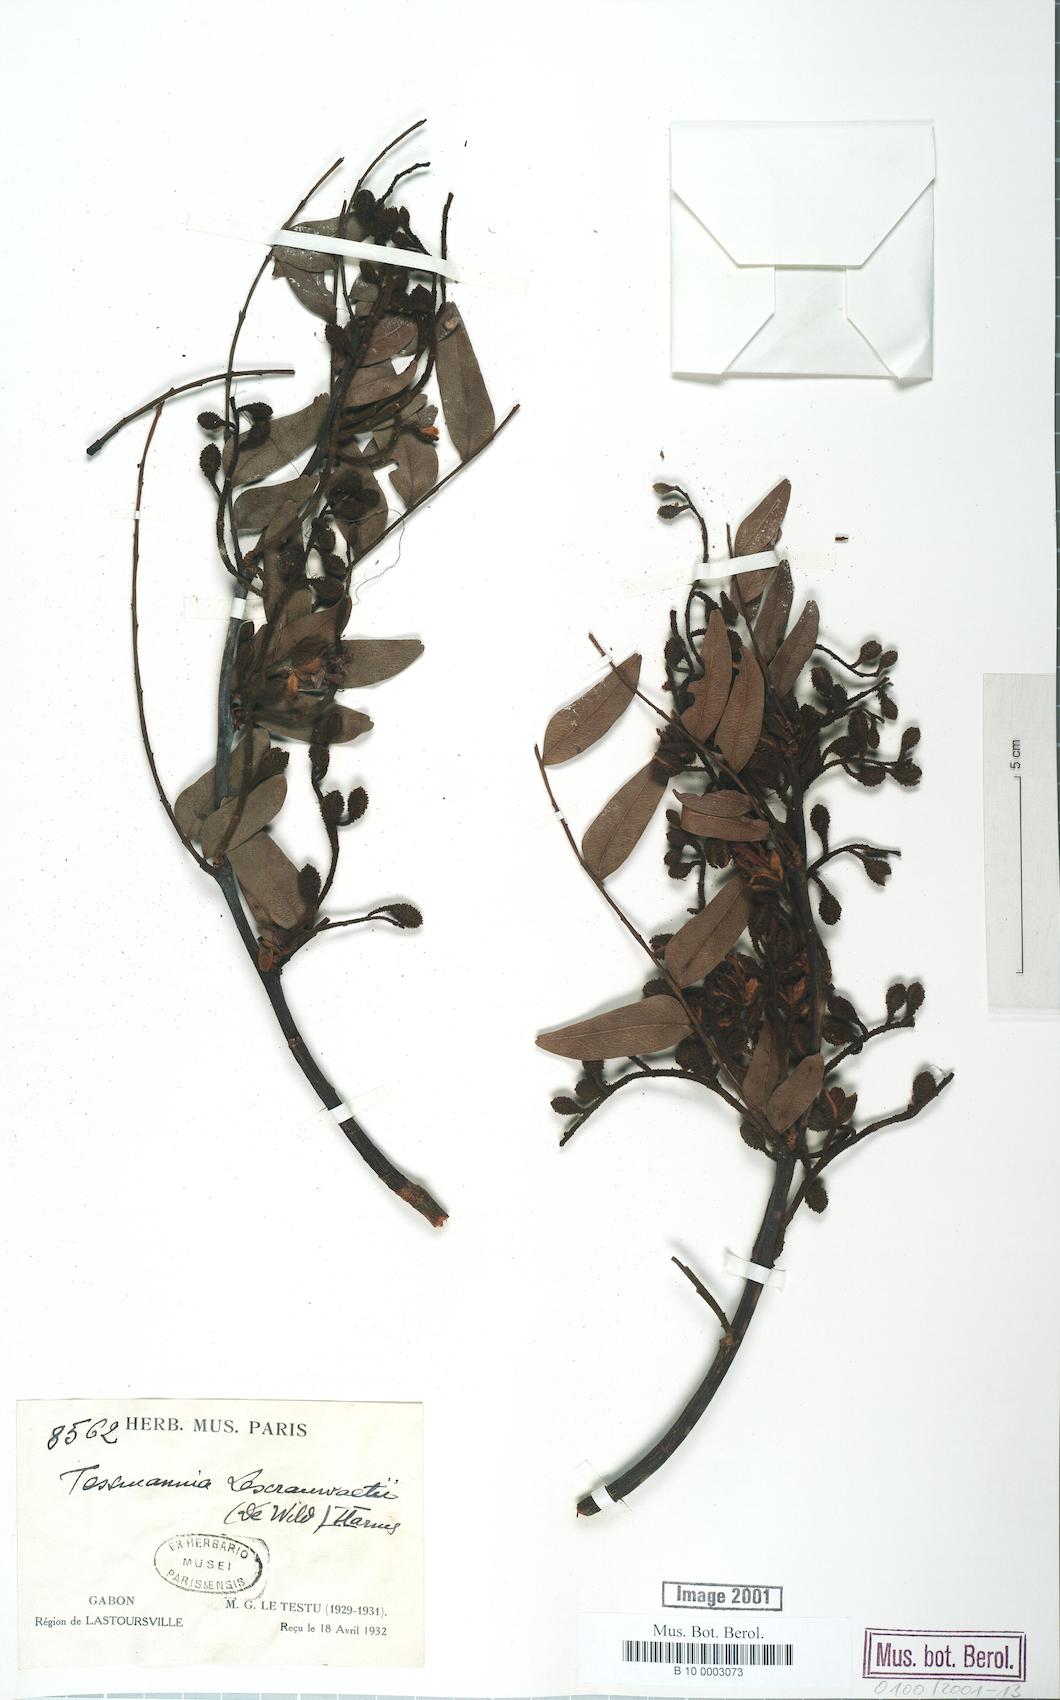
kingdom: Plantae
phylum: Tracheophyta
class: Magnoliopsida
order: Fabales
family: Fabaceae
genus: Tessmannia
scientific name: Tessmannia lescrauwaetii
